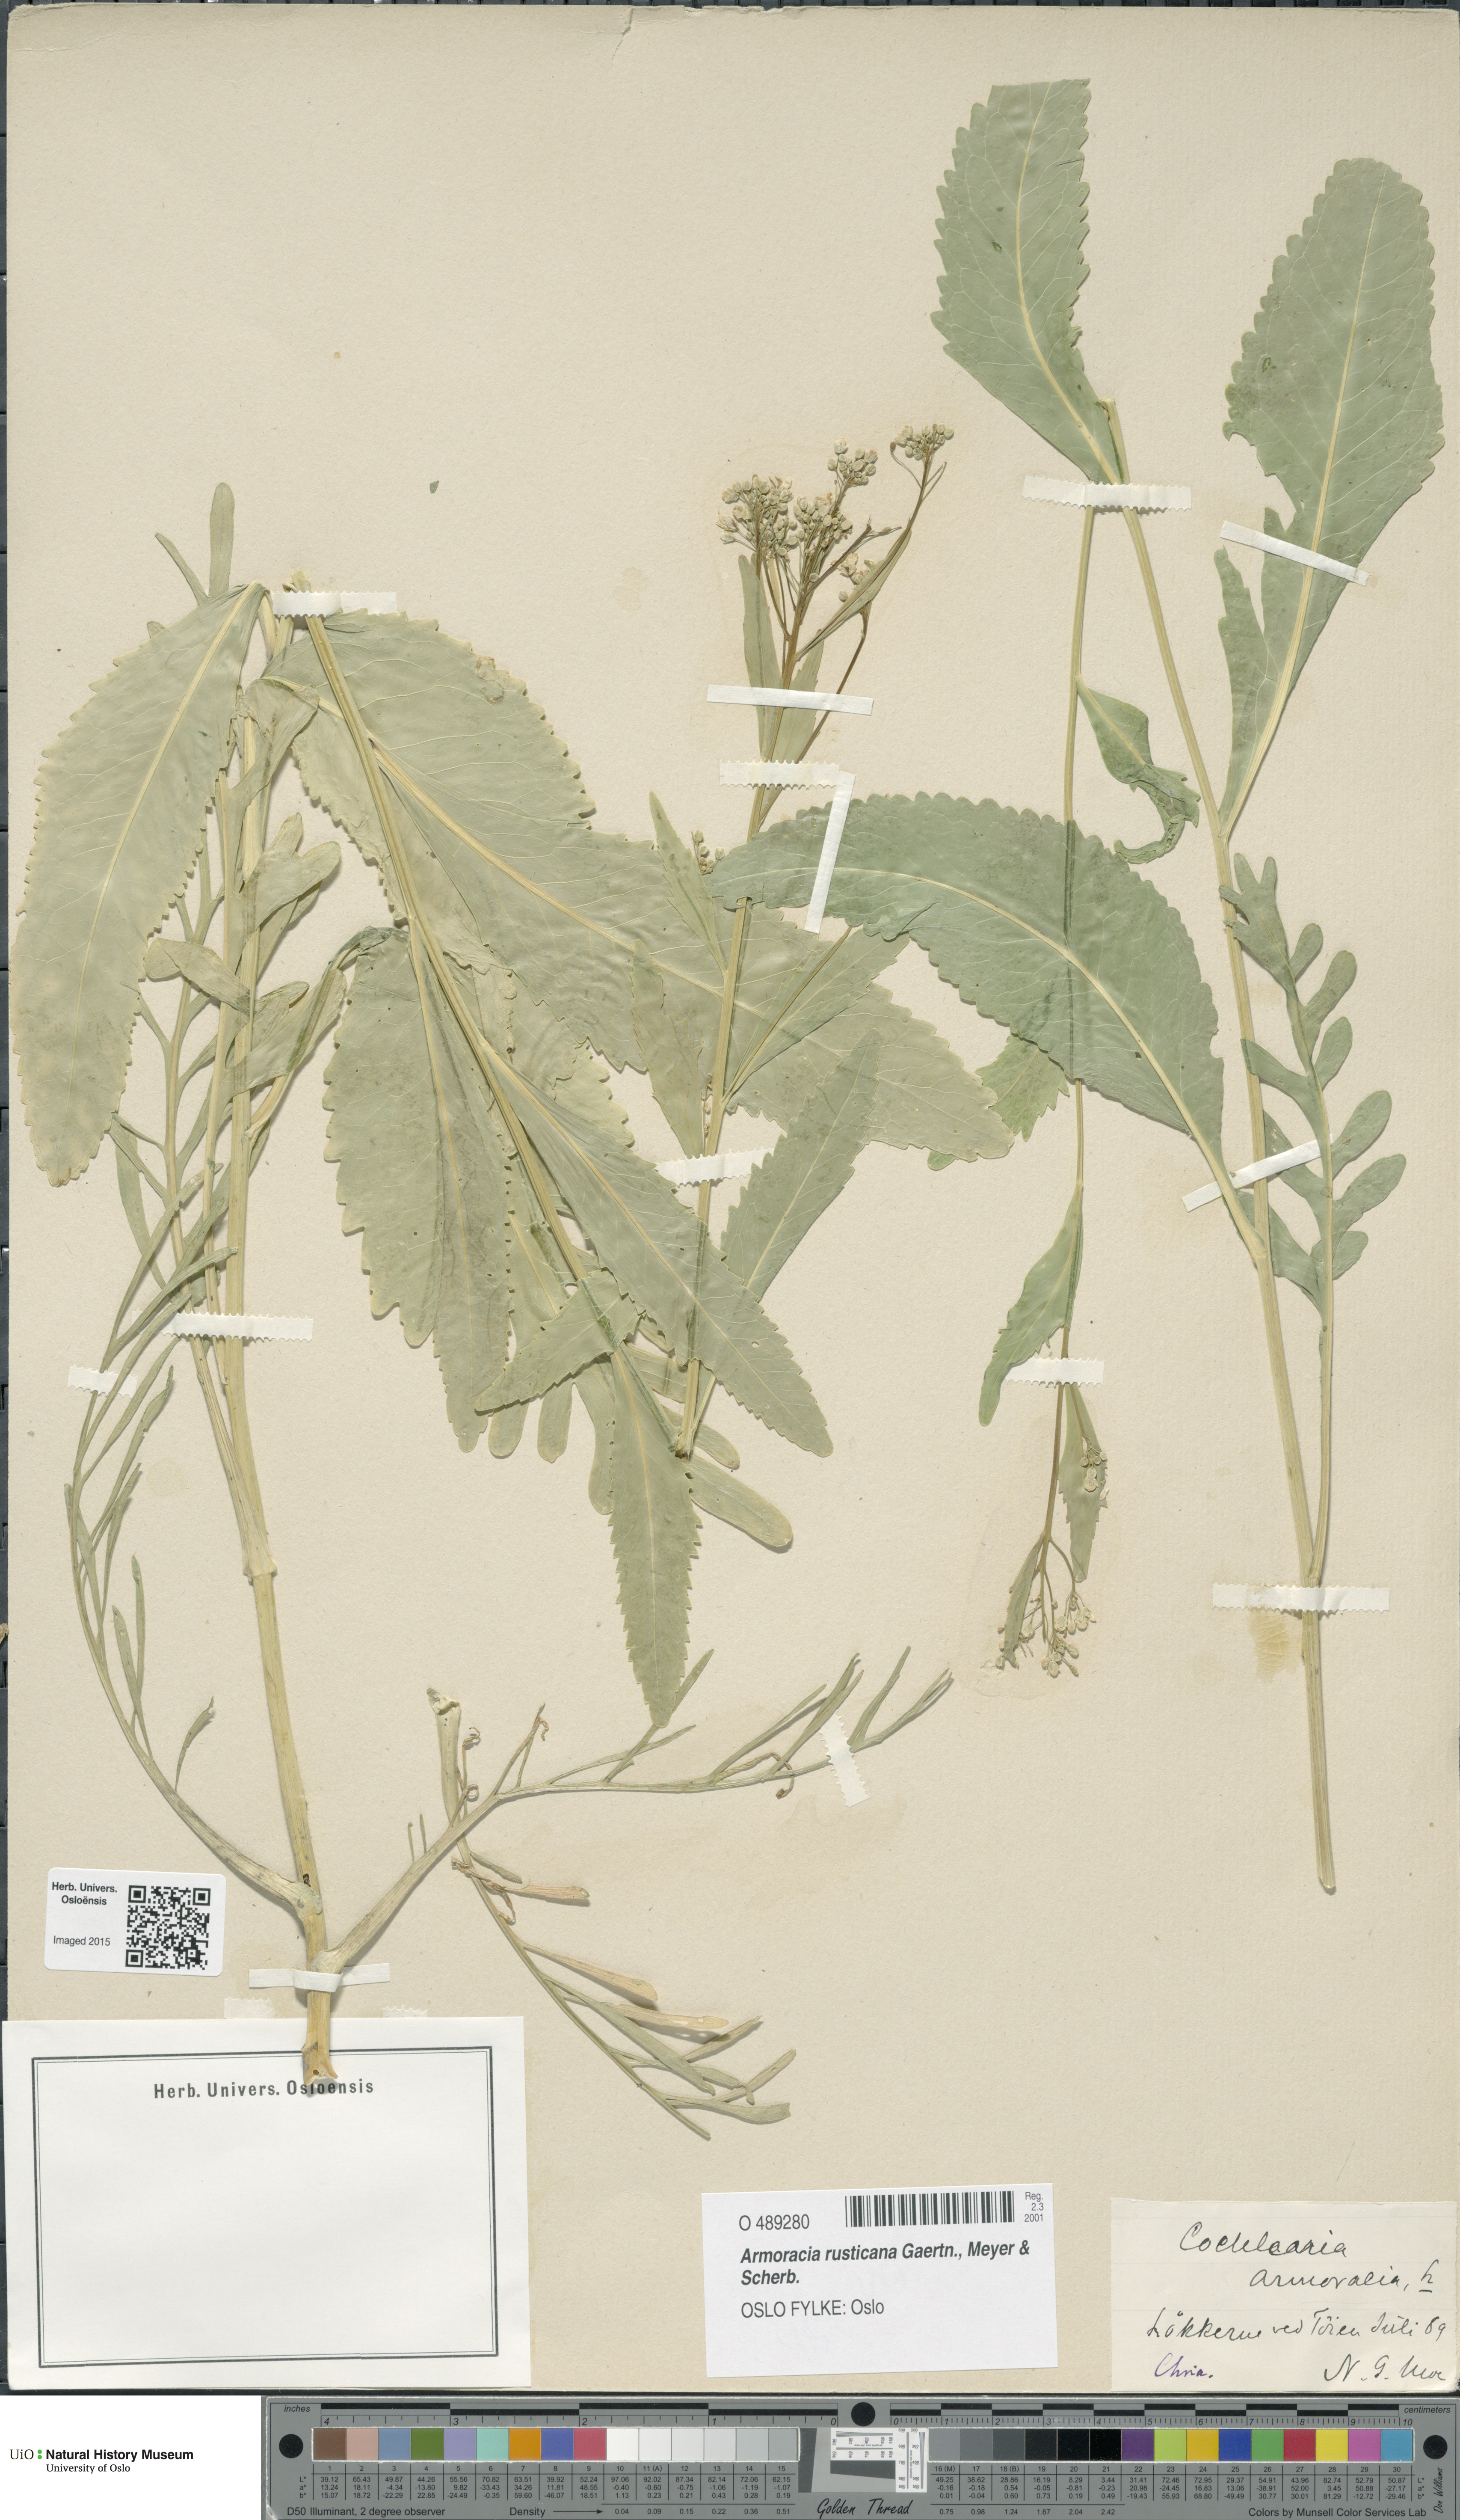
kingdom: Plantae
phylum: Tracheophyta
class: Magnoliopsida
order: Brassicales
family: Brassicaceae
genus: Armoracia
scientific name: Armoracia rusticana
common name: Horseradish
